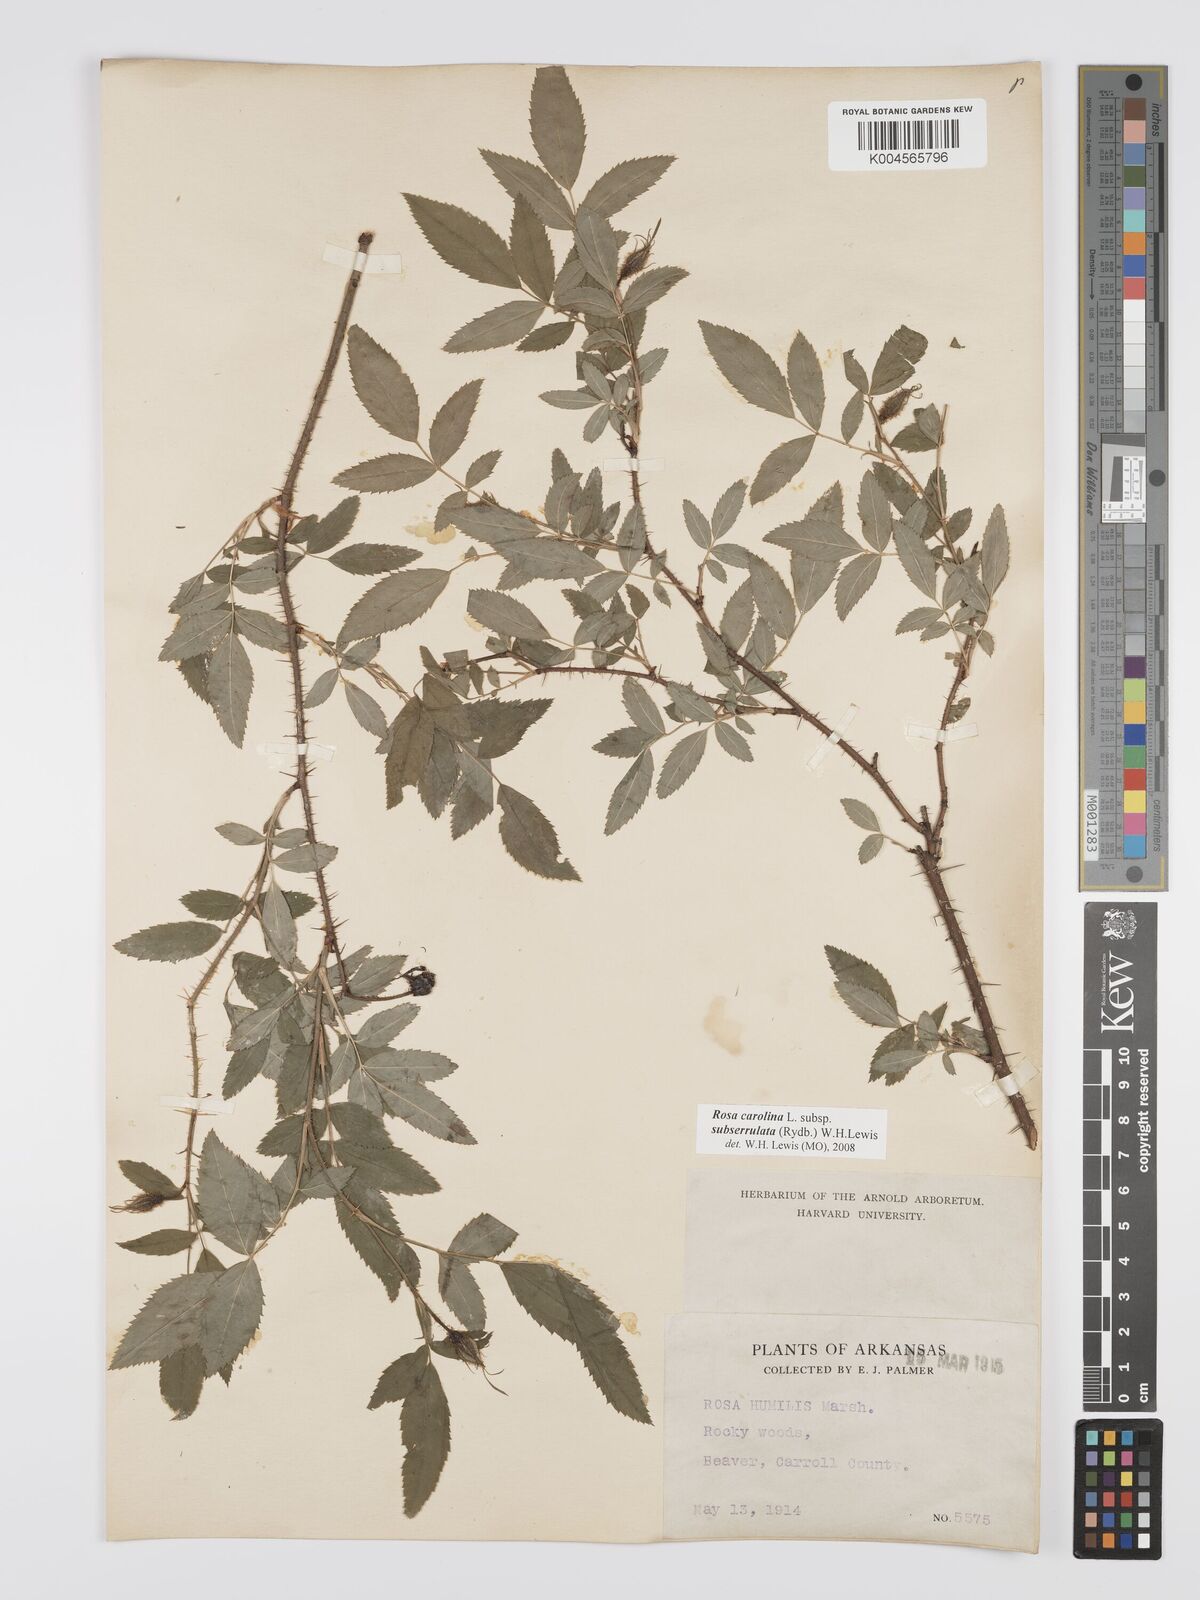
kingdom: Plantae
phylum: Tracheophyta
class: Magnoliopsida
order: Rosales
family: Rosaceae
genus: Rosa
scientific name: Rosa carolina
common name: Pasture rose
